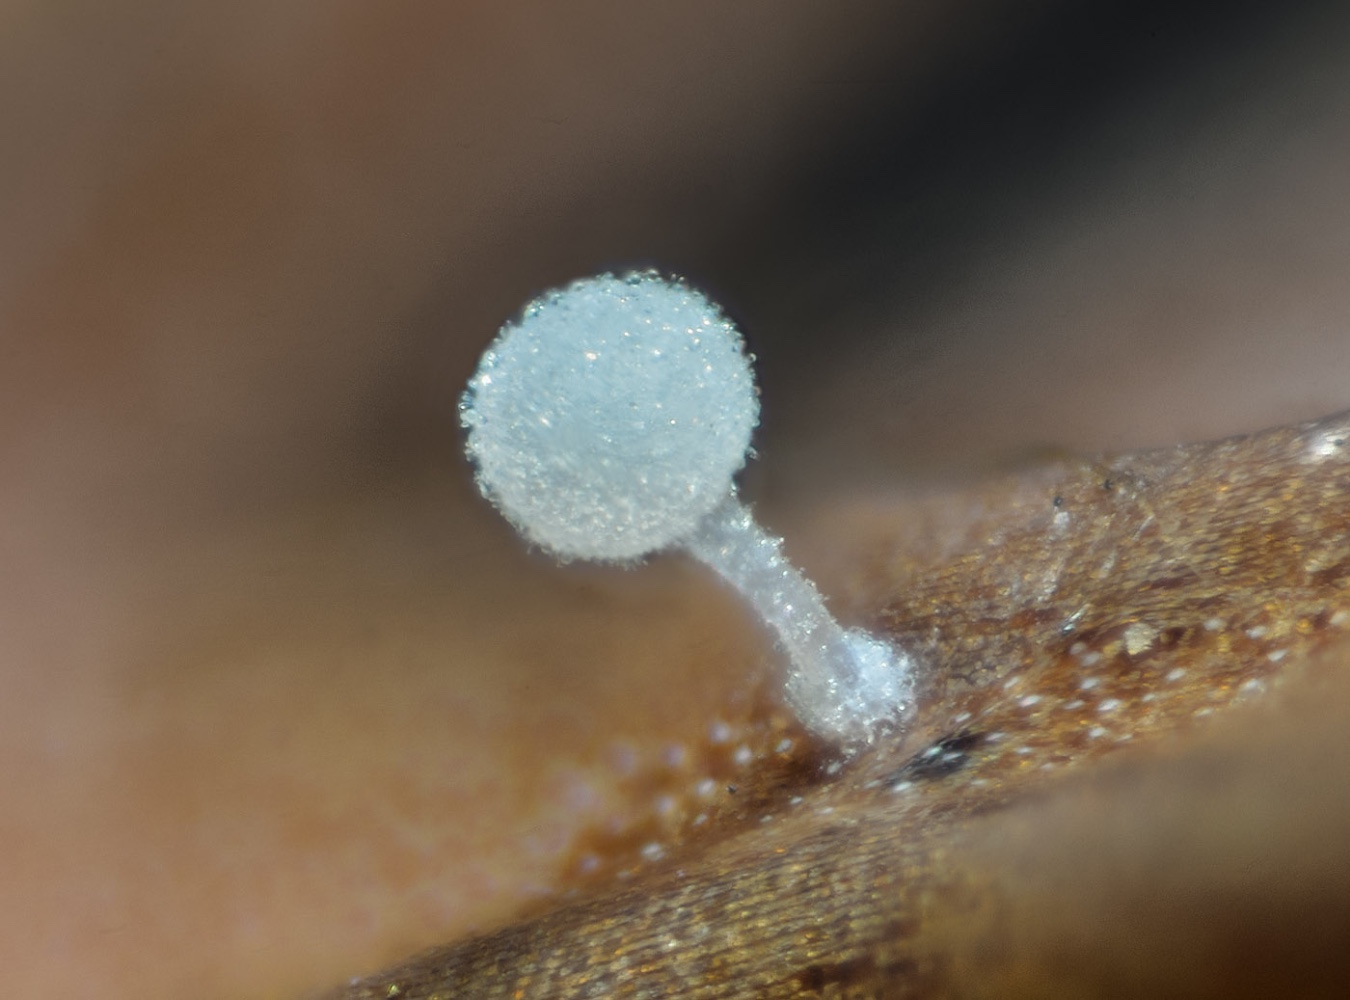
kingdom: Fungi
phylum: Basidiomycota
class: Agaricomycetes
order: Agaricales
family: Physalacriaceae
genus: Physalacria
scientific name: Physalacria cryptomeriae
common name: japangran-boldkølle
